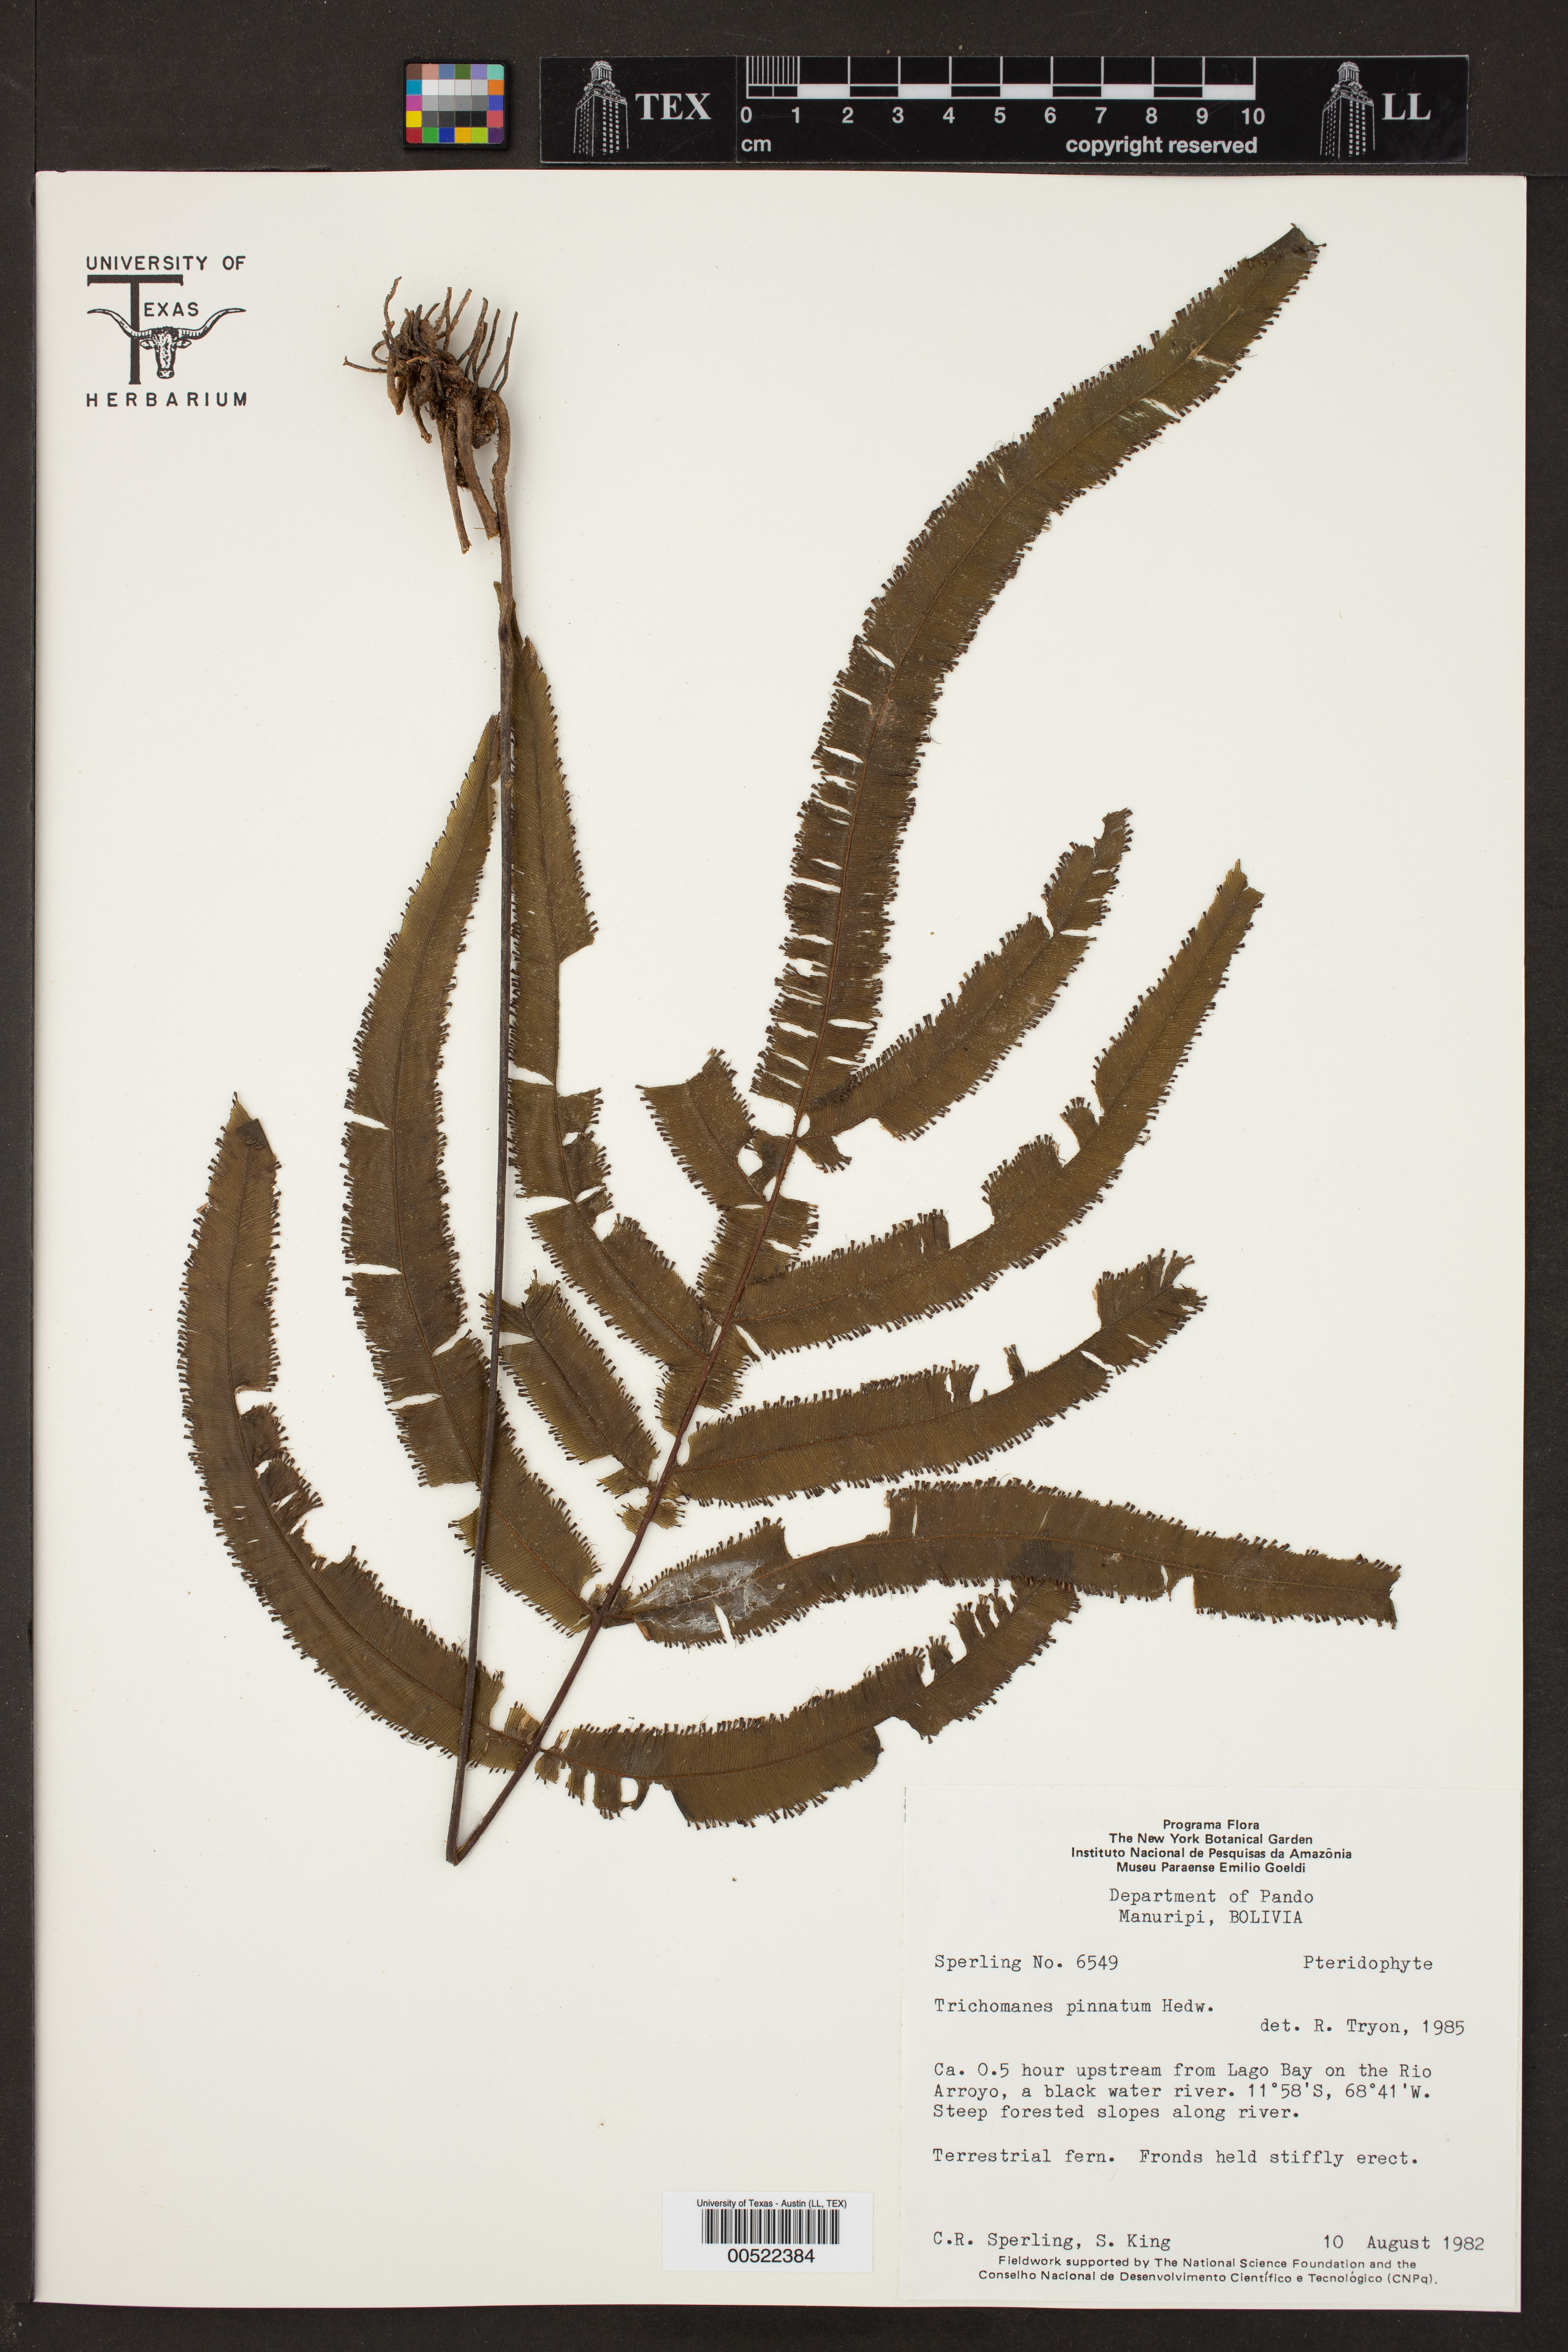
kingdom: Plantae
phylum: Tracheophyta
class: Polypodiopsida
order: Hymenophyllales
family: Hymenophyllaceae
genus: Trichomanes
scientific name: Trichomanes pinnatum
